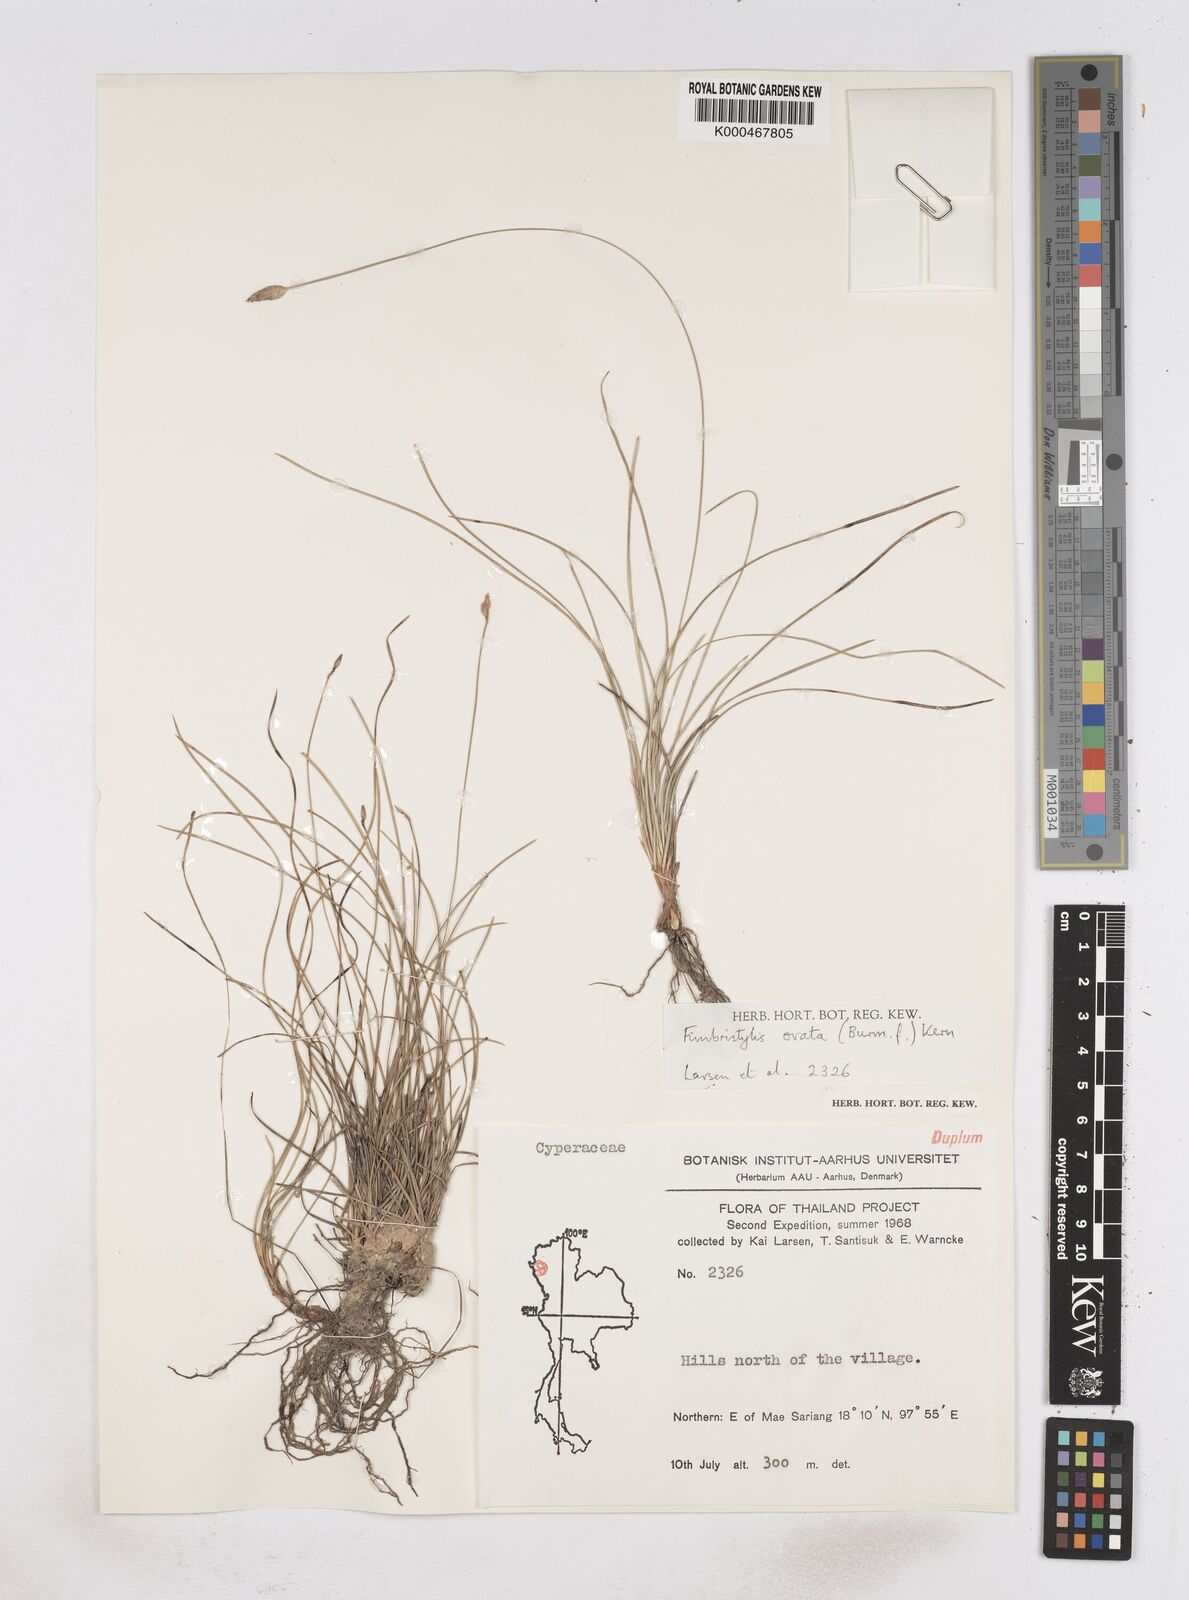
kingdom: Plantae
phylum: Tracheophyta
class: Liliopsida
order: Poales
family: Cyperaceae
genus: Abildgaardia
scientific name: Abildgaardia ovata
